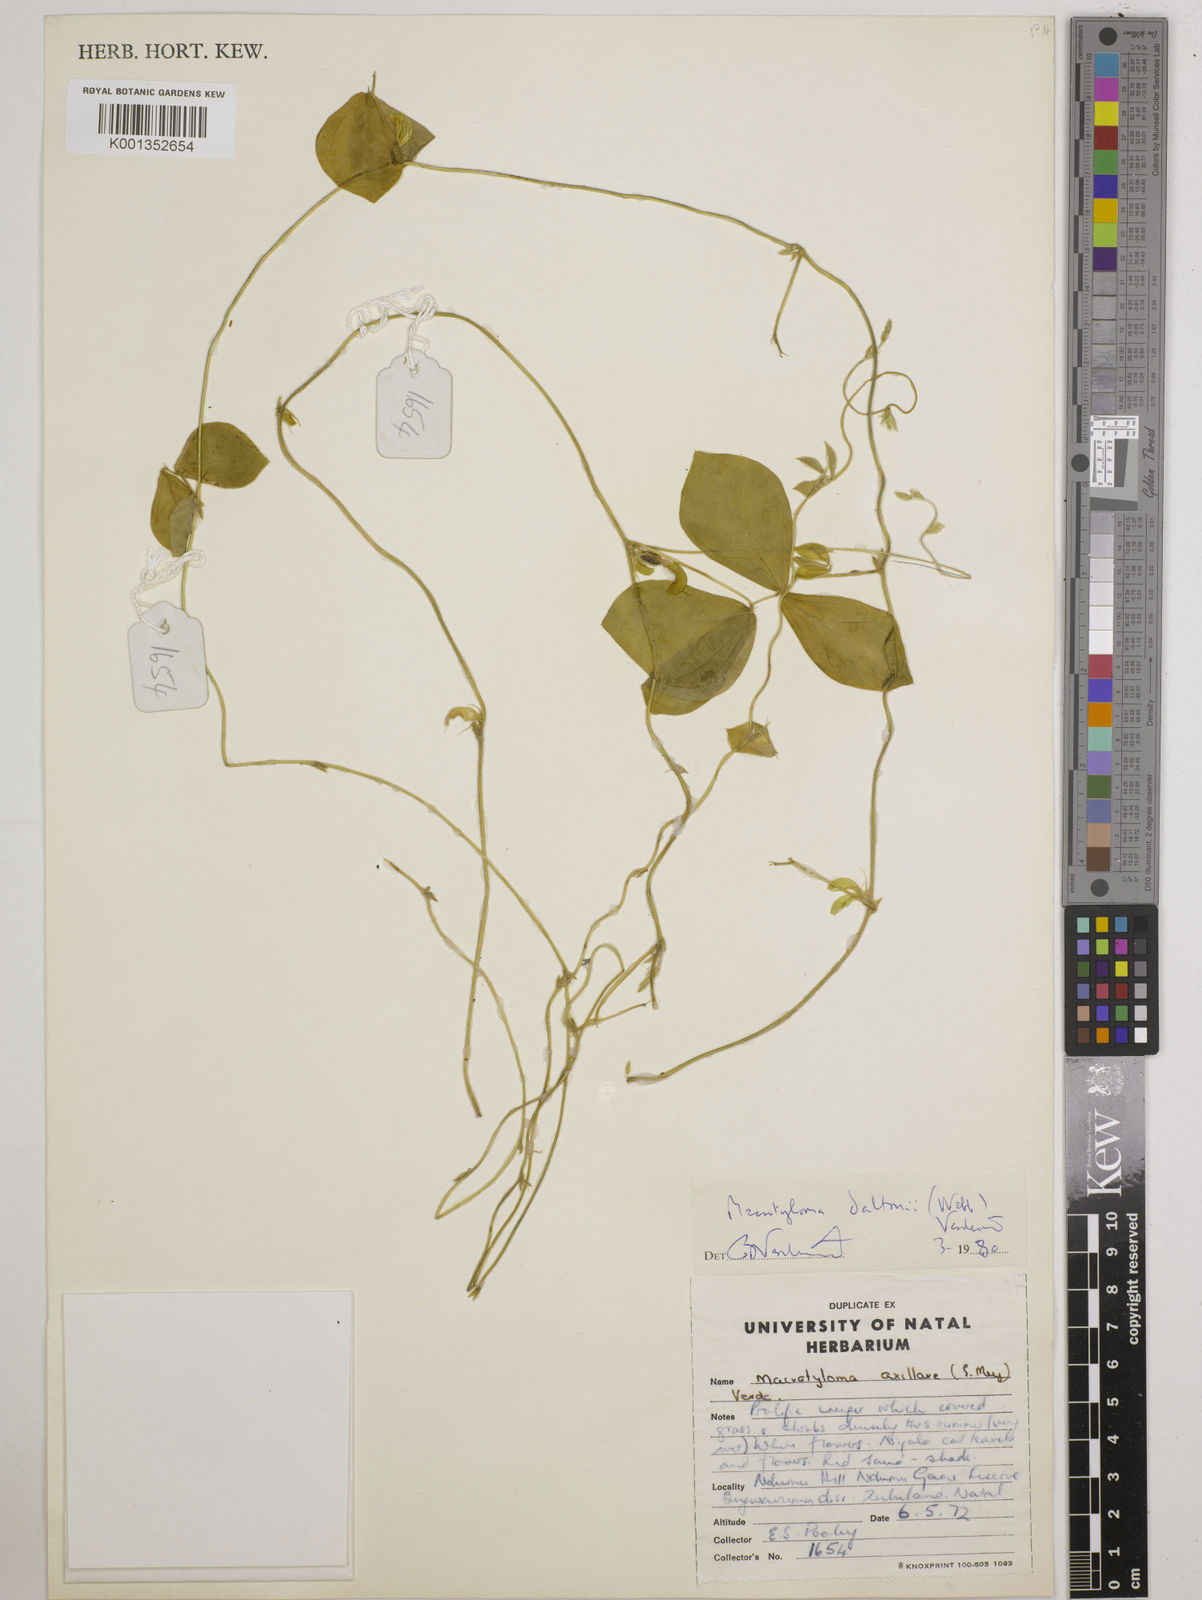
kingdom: Plantae
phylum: Tracheophyta
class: Magnoliopsida
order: Fabales
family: Fabaceae
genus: Macrotyloma
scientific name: Macrotyloma daltonii
